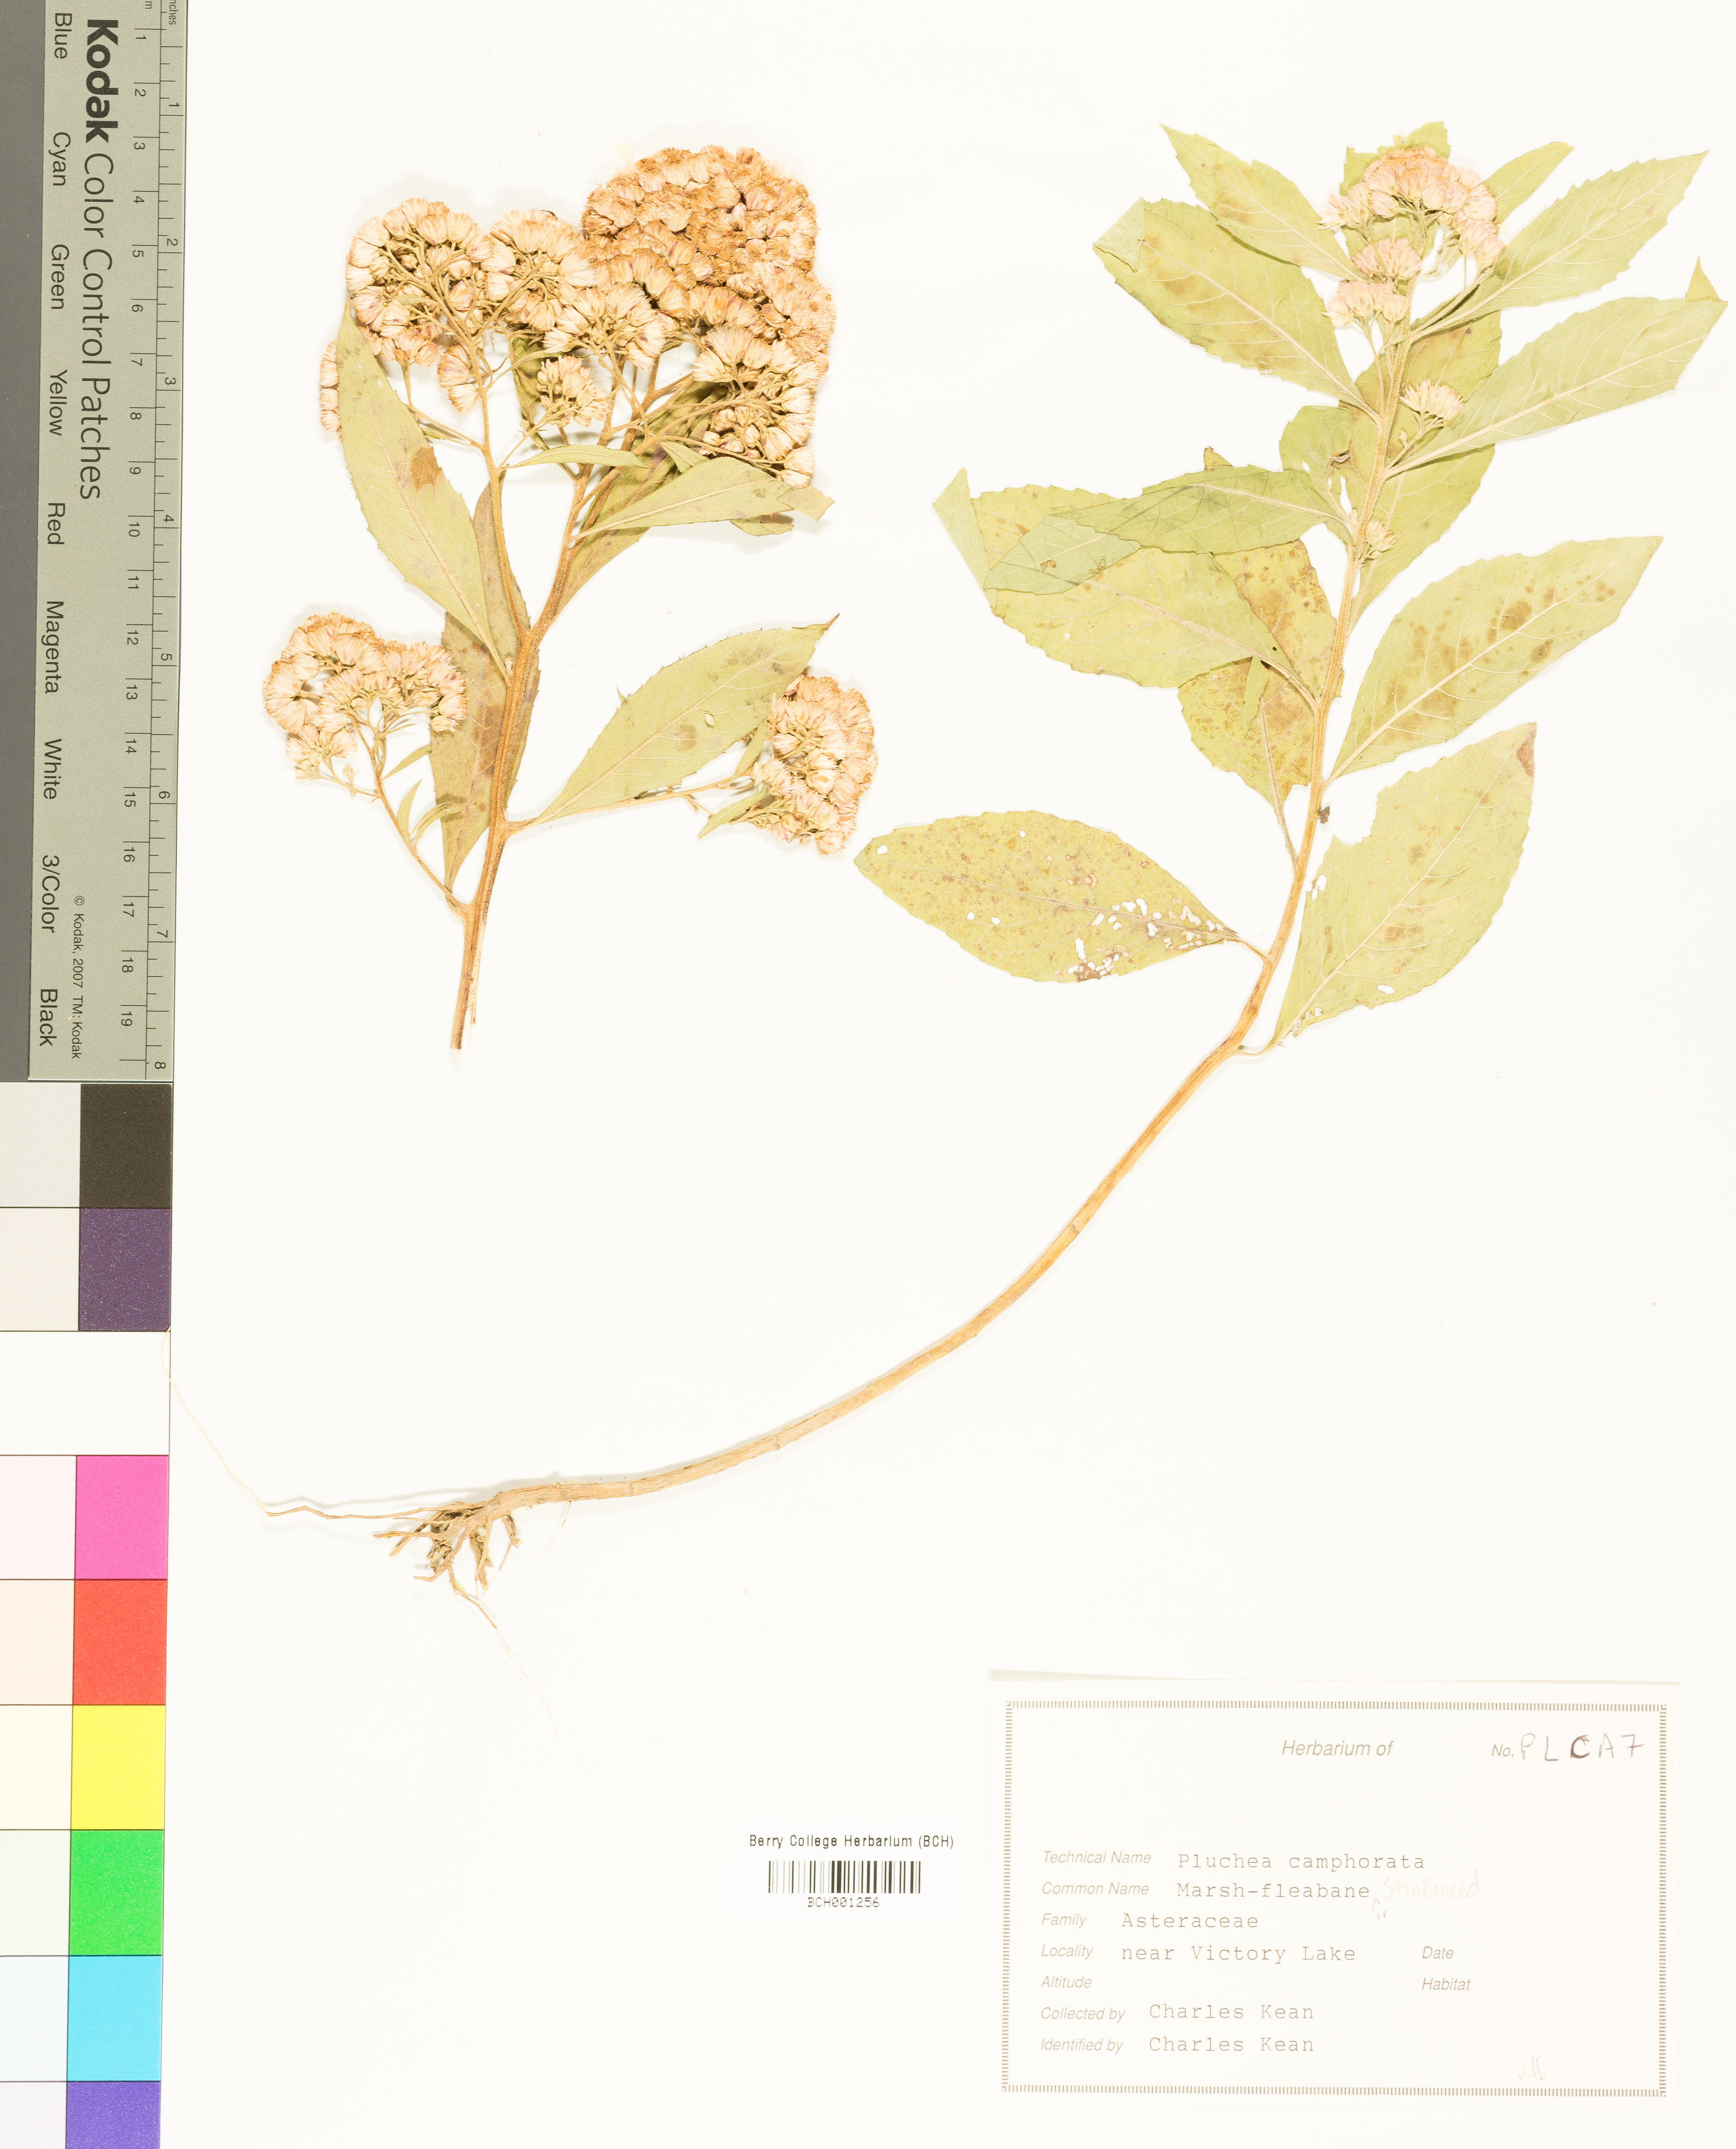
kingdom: Plantae
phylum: Tracheophyta
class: Magnoliopsida
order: Asterales
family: Asteraceae
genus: Pluchea
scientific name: Pluchea camphorata
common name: Camphor pluchea
